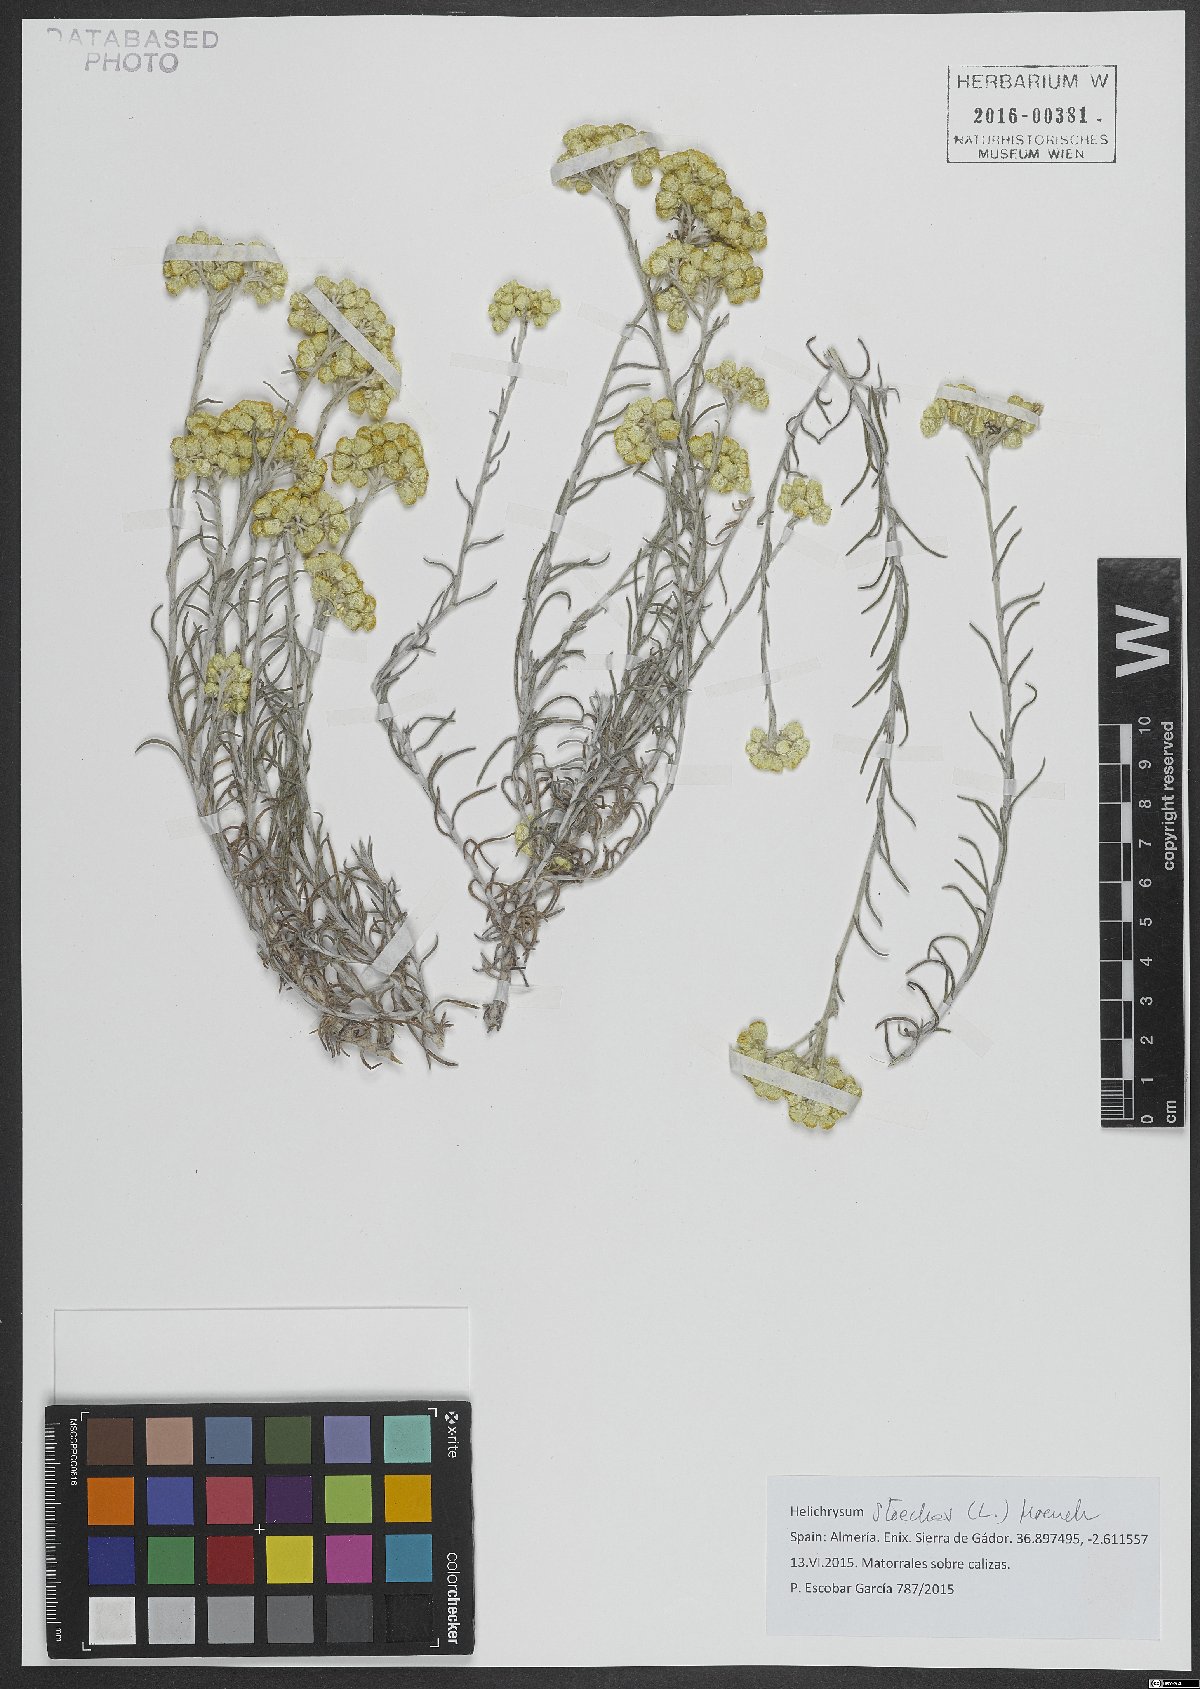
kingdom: Plantae
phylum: Tracheophyta
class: Magnoliopsida
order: Asterales
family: Asteraceae
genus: Helichrysum
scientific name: Helichrysum stoechas
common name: Goldilocks
